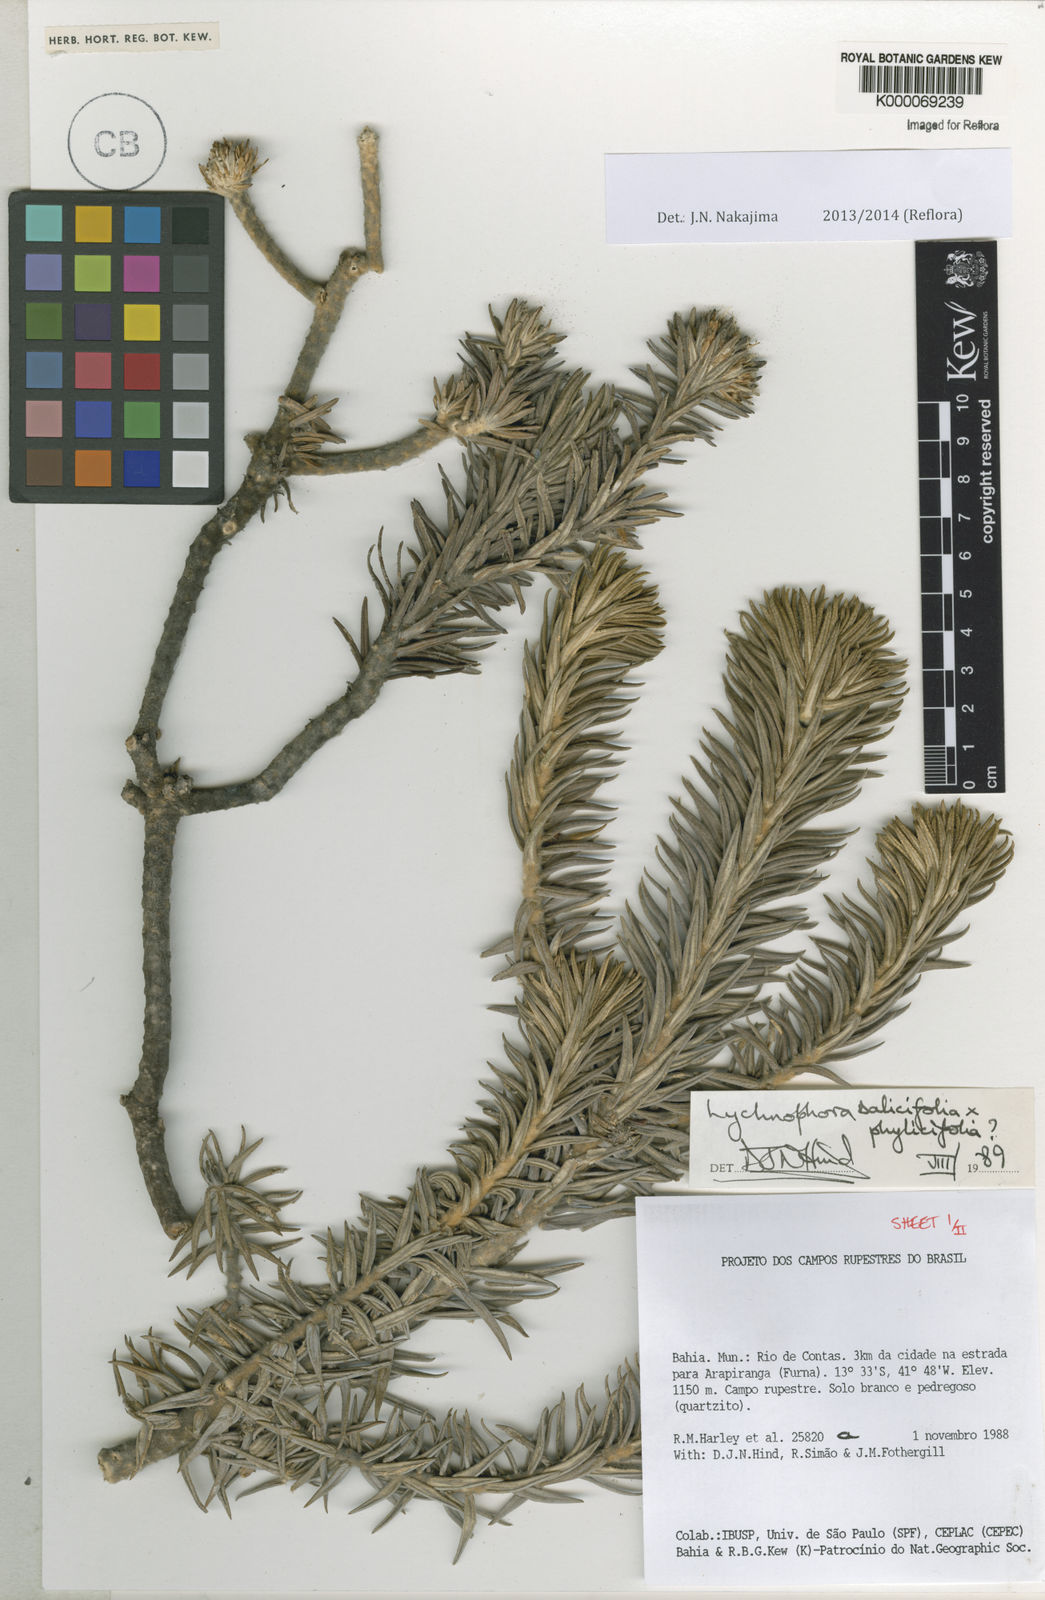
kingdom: Plantae
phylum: Tracheophyta
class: Magnoliopsida
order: Asterales
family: Asteraceae
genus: Lychnophora
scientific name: Lychnophora salicifolia
